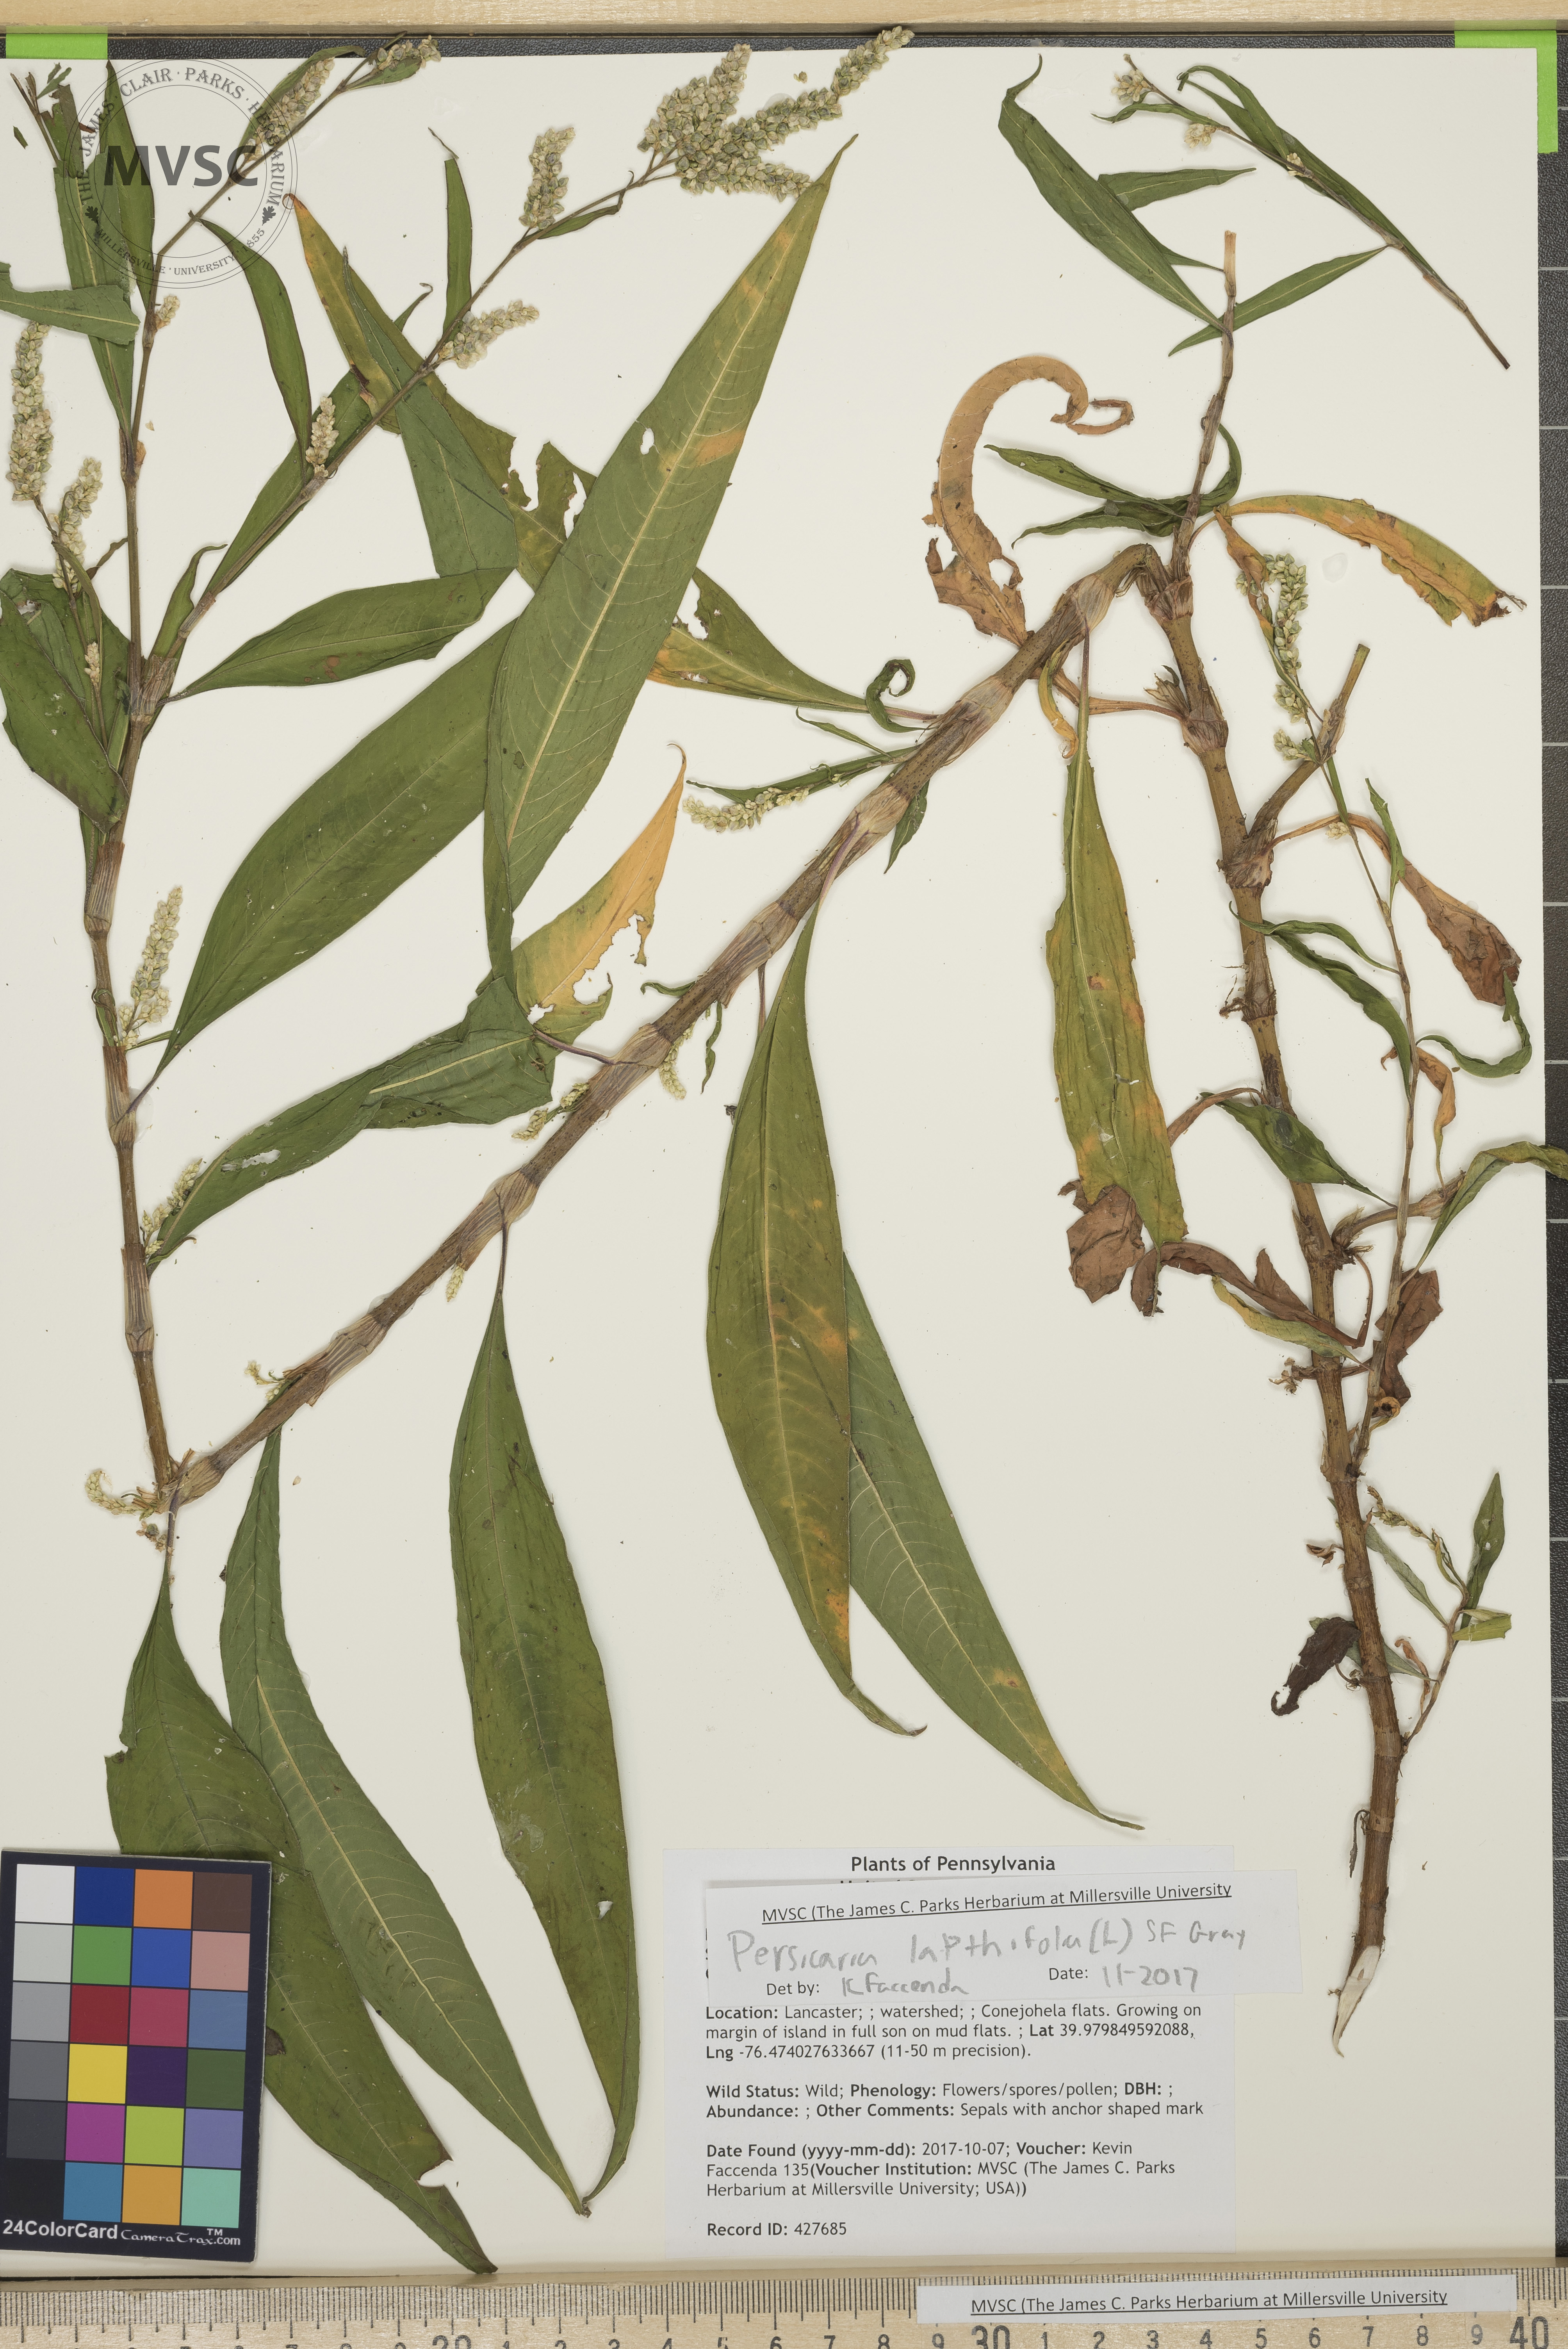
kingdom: Plantae
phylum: Tracheophyta
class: Magnoliopsida
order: Caryophyllales
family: Polygonaceae
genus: Persicaria
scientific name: Persicaria lapathifolia
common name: Curlytop knotweed
